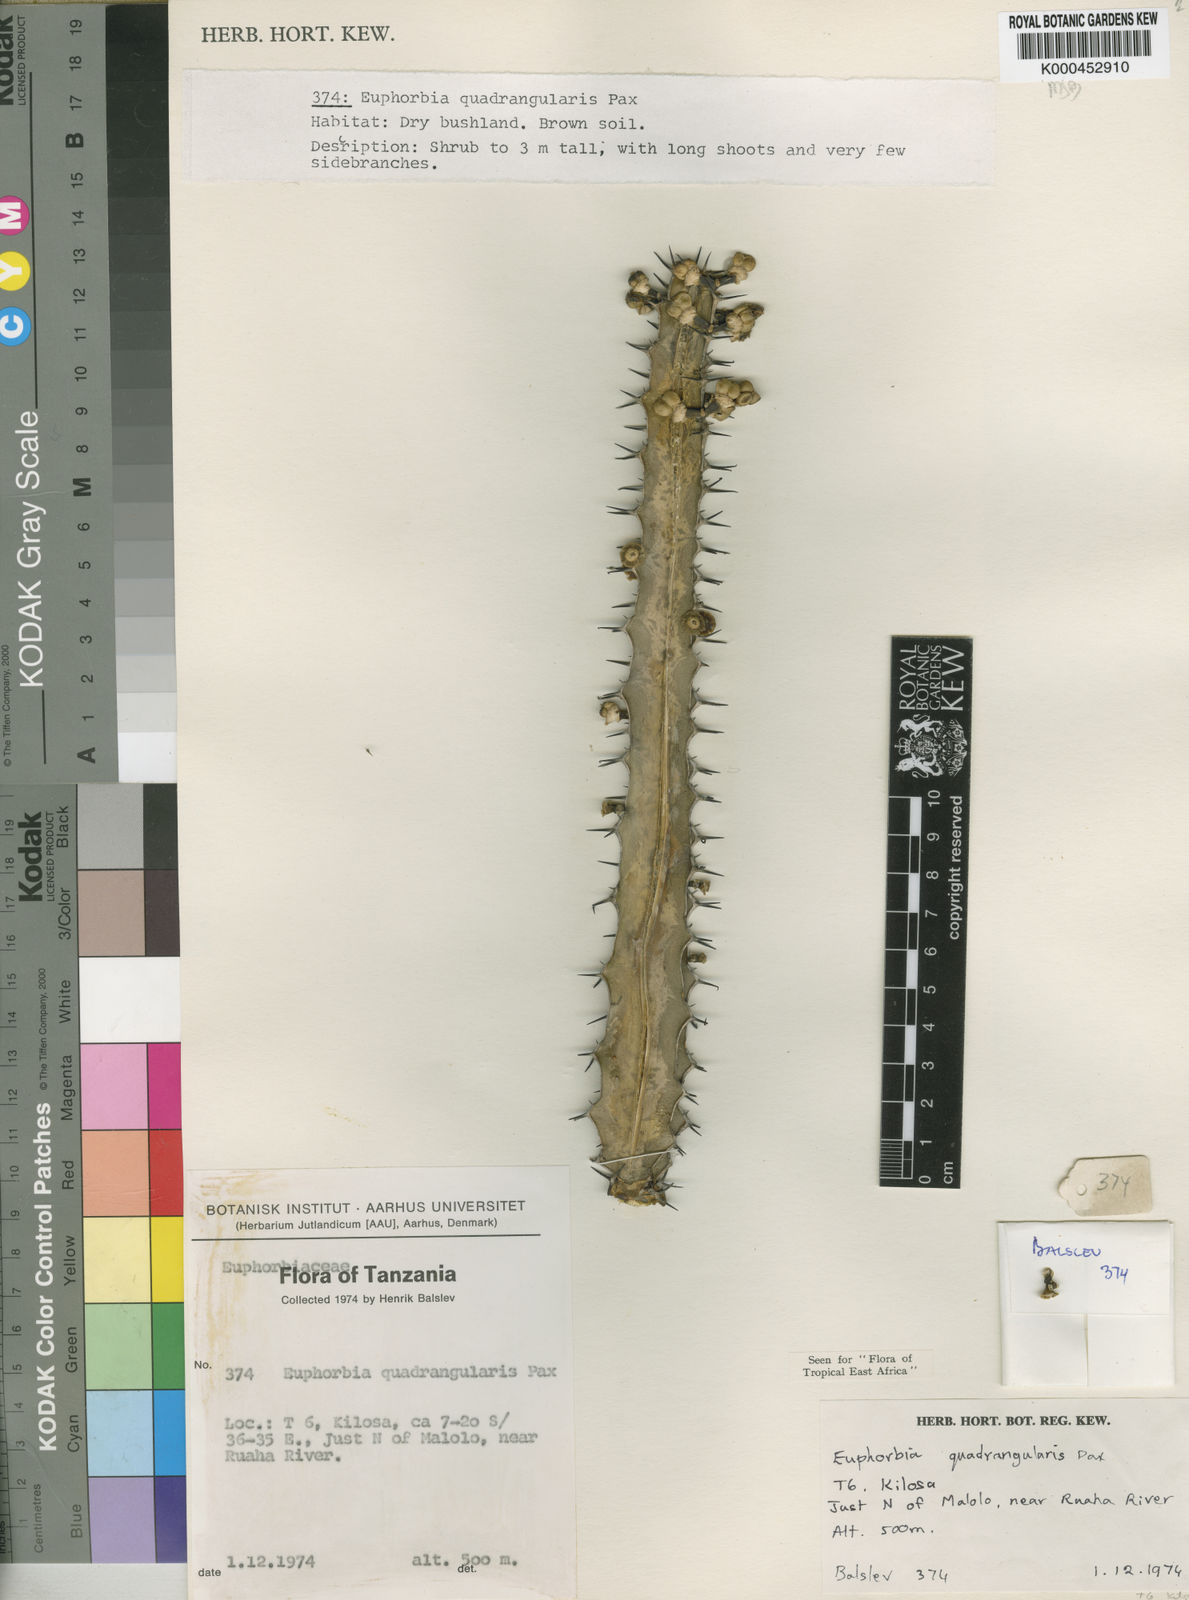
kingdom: Plantae
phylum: Tracheophyta
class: Magnoliopsida
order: Malpighiales
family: Euphorbiaceae
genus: Euphorbia
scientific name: Euphorbia quadrangularis
